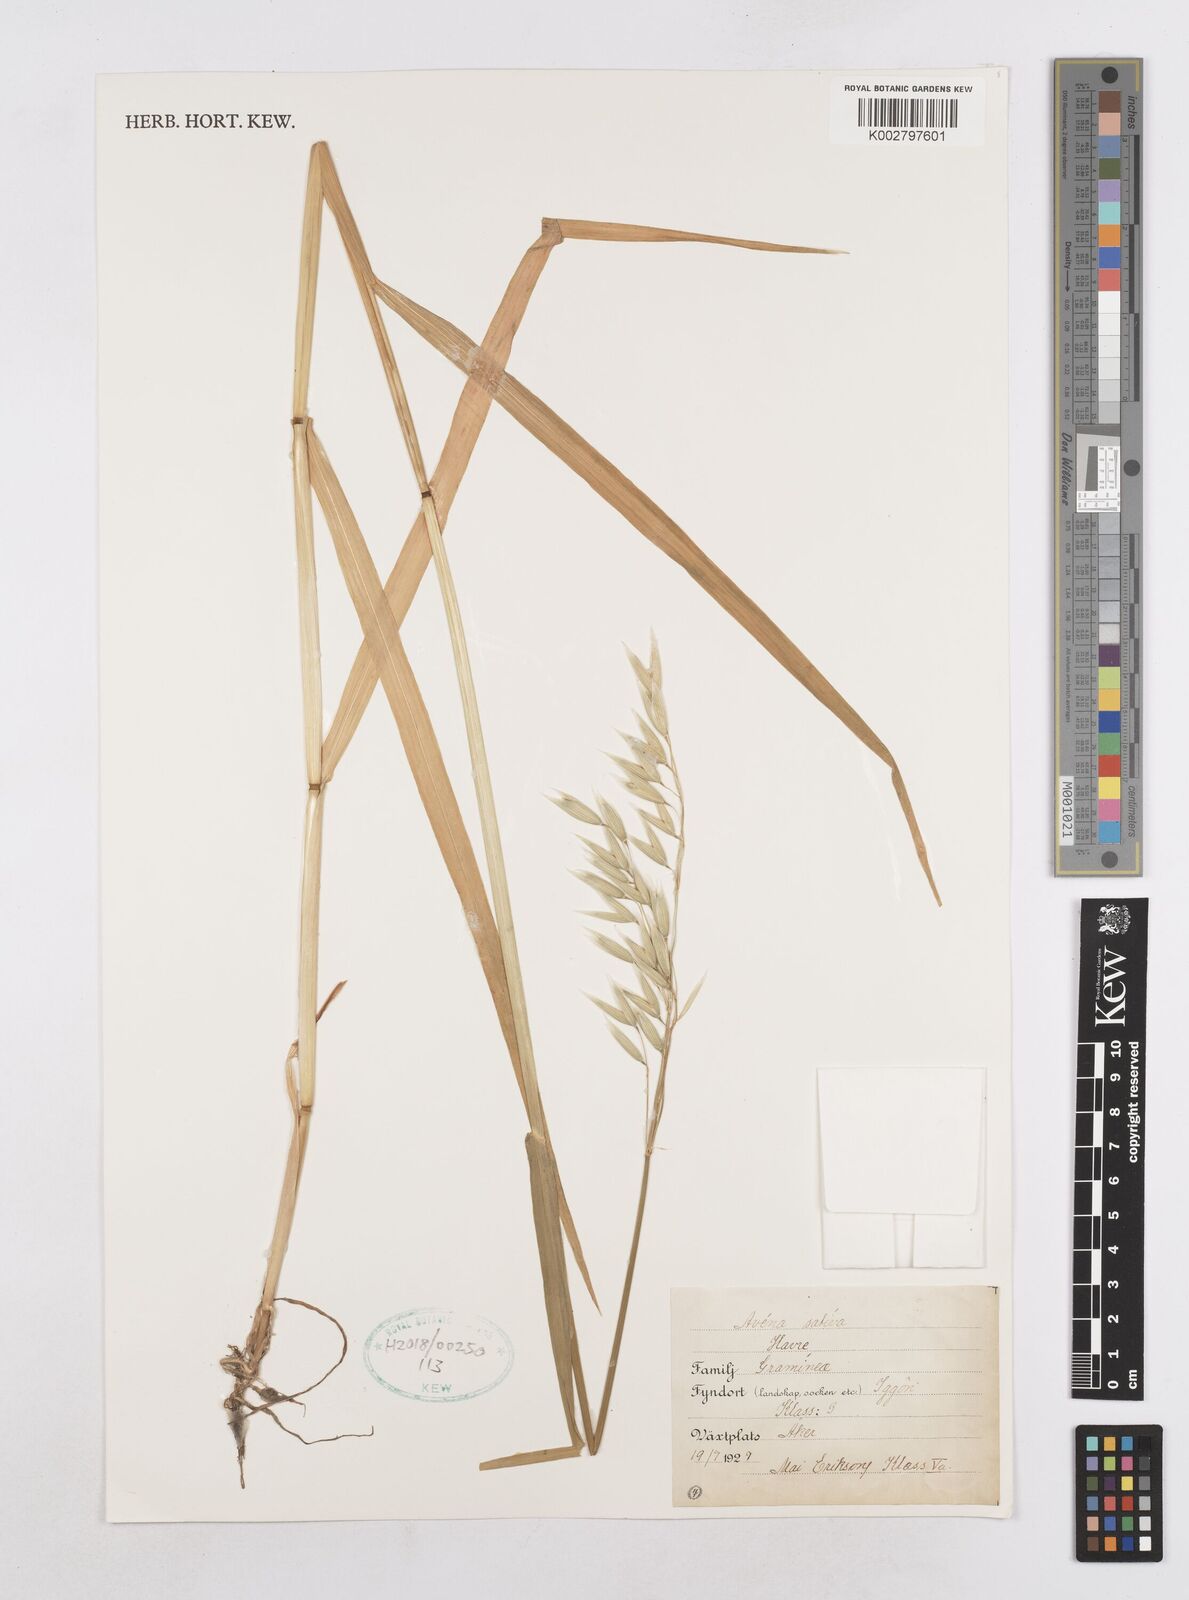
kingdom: Plantae
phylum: Tracheophyta
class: Liliopsida
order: Poales
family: Poaceae
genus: Avena
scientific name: Avena sativa
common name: Oat
